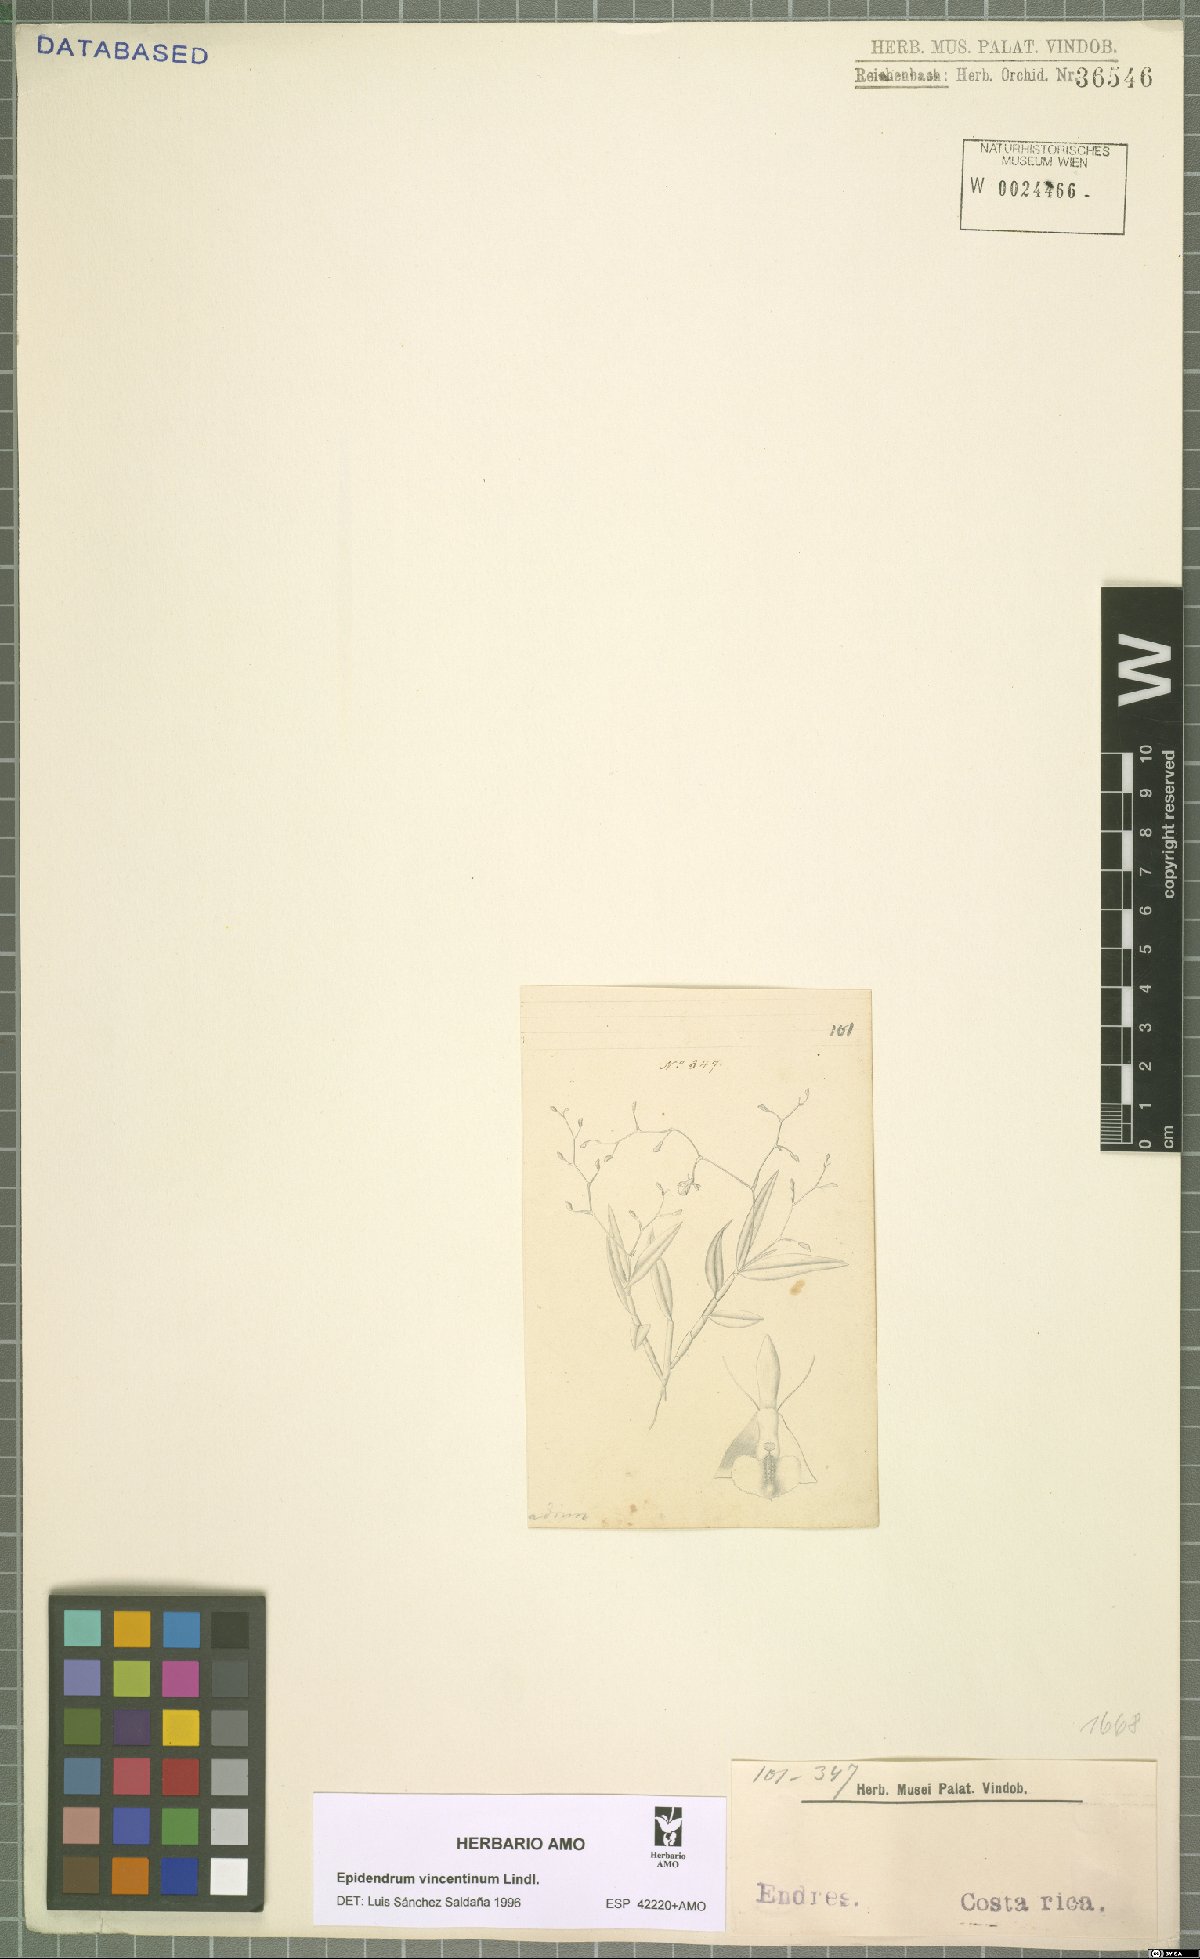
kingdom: Plantae
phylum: Tracheophyta
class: Liliopsida
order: Asparagales
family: Orchidaceae
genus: Epidendrum
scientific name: Epidendrum vincentinum
